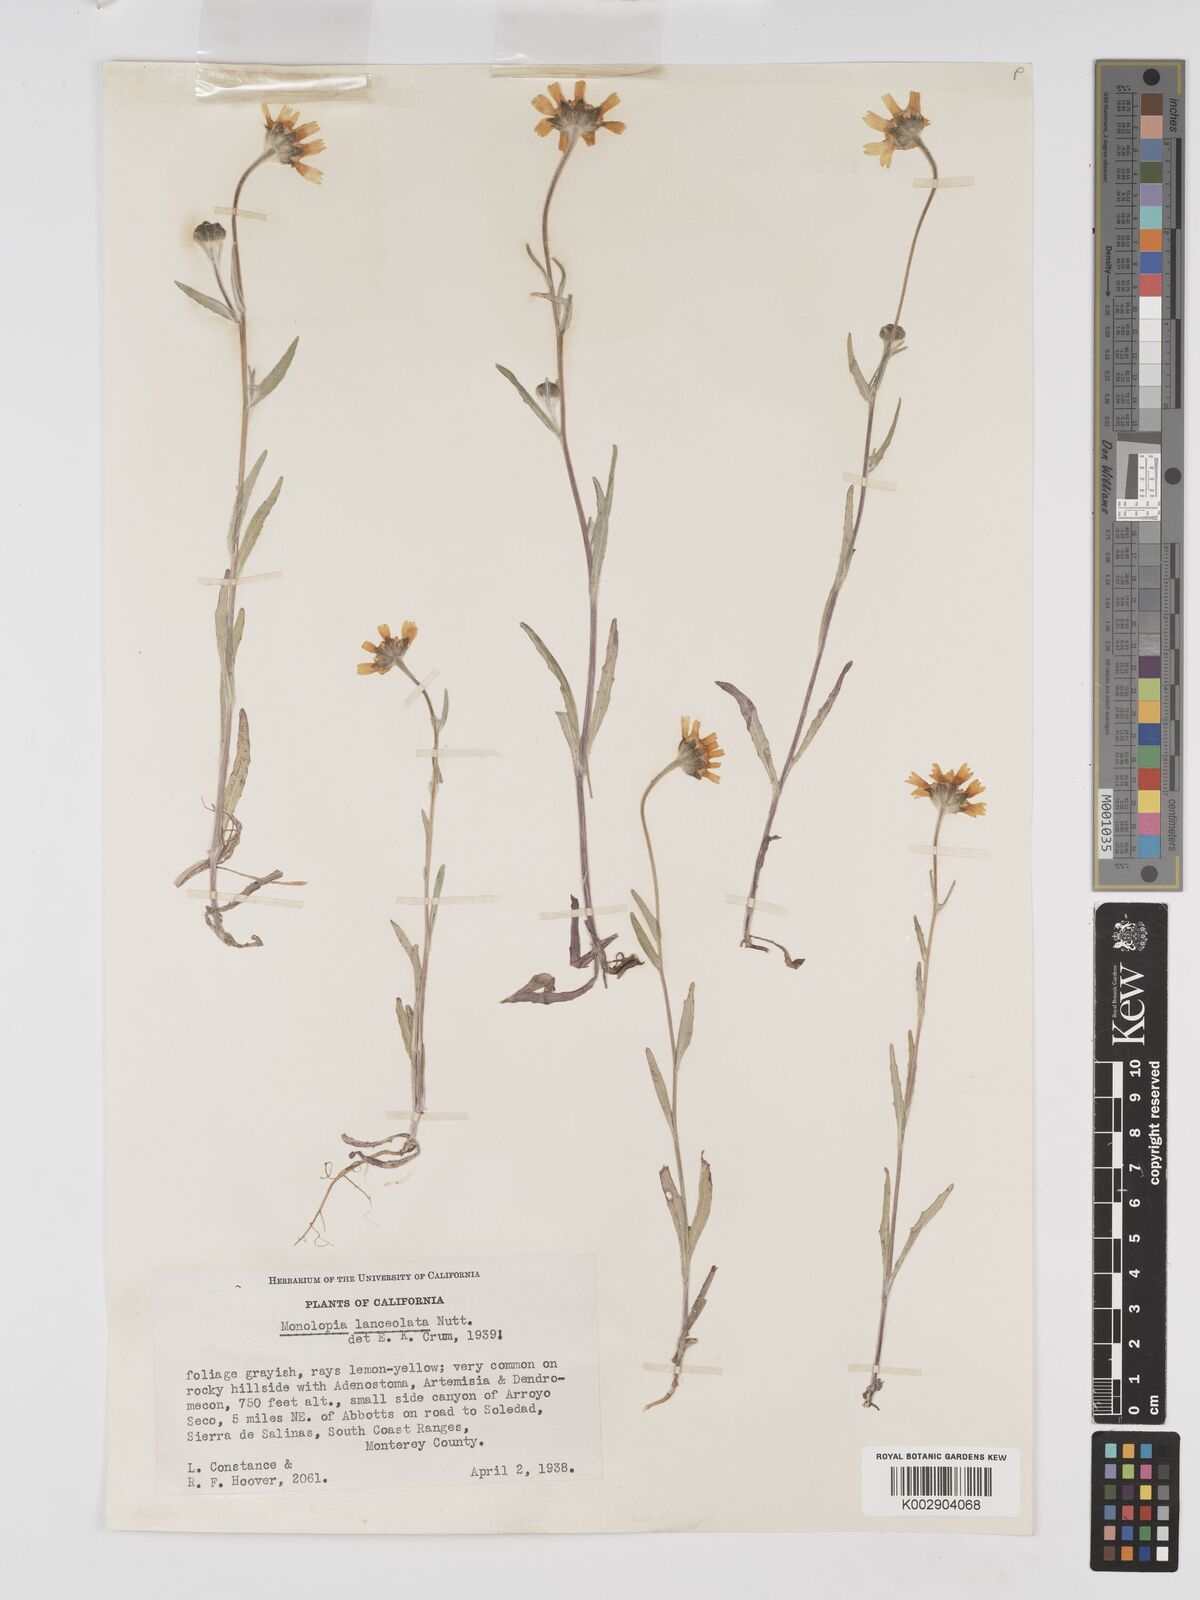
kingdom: Plantae
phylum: Tracheophyta
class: Magnoliopsida
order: Asterales
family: Asteraceae
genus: Monolopia
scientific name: Monolopia lanceolata
